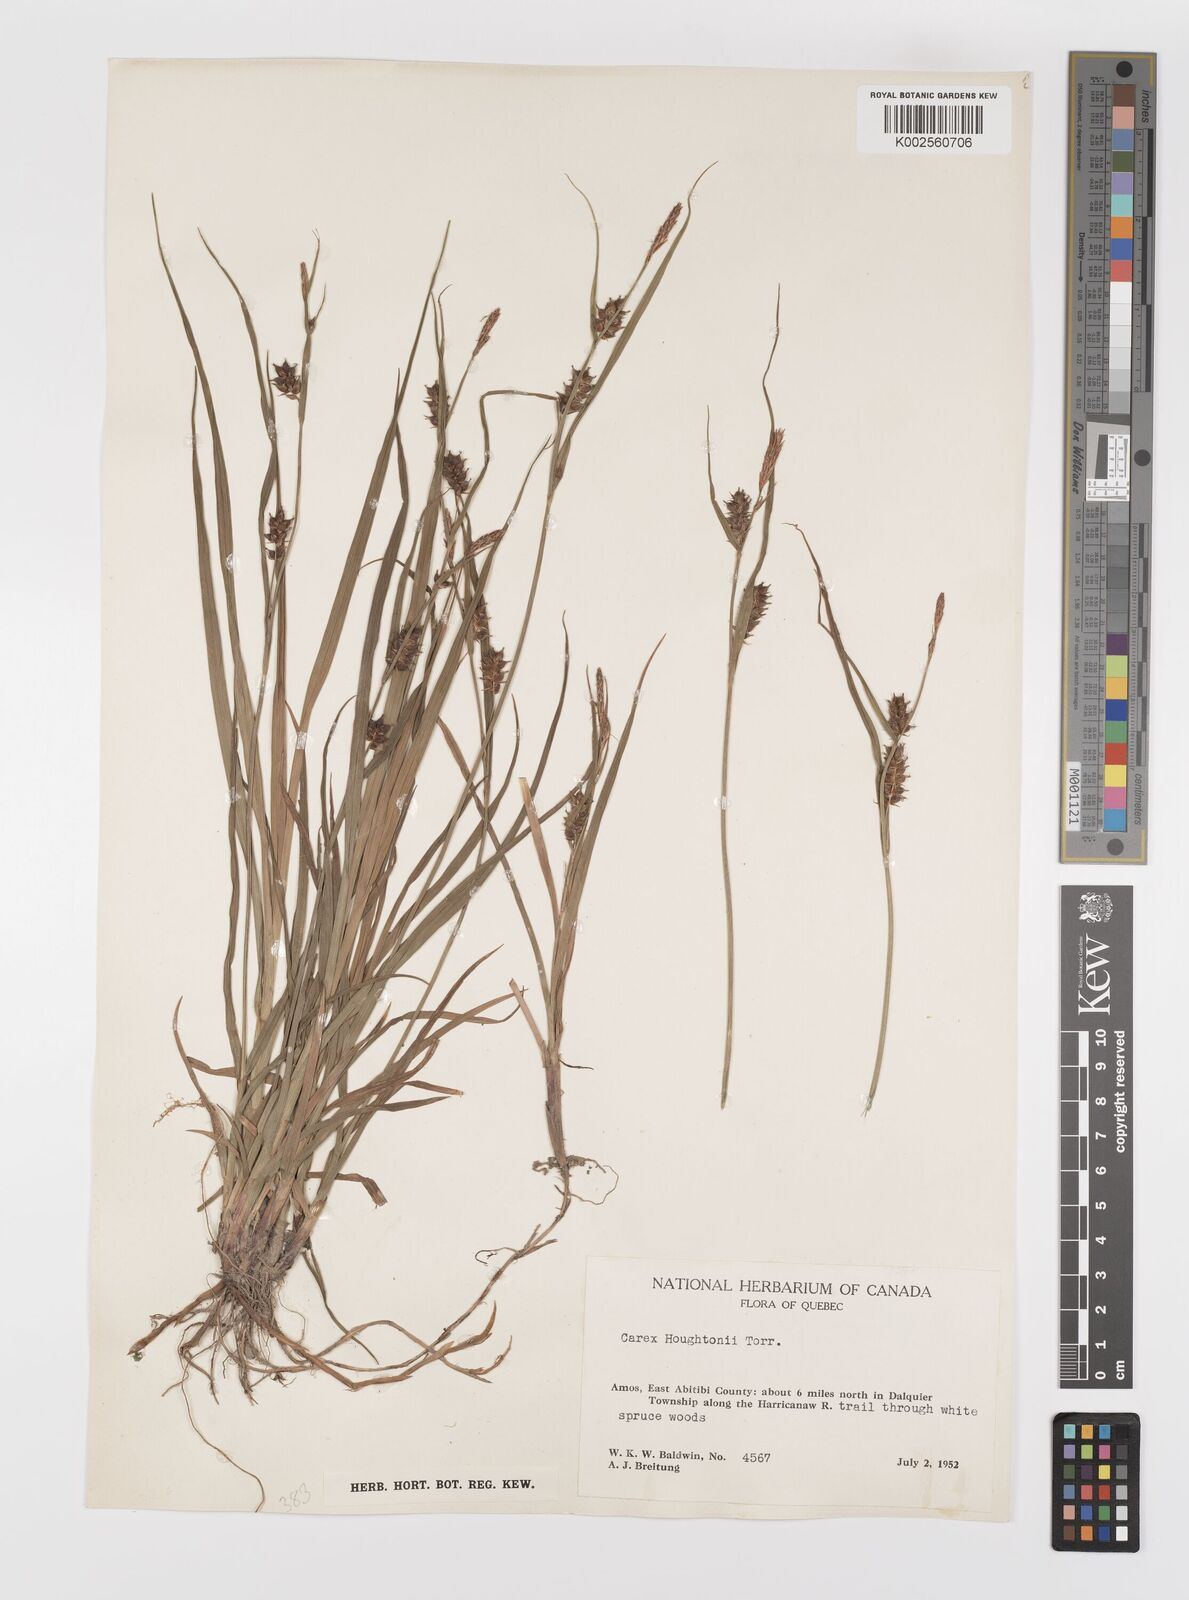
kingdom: Plantae
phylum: Tracheophyta
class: Liliopsida
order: Poales
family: Cyperaceae
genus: Carex
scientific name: Carex houghtoniana
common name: Houghton's sedge
